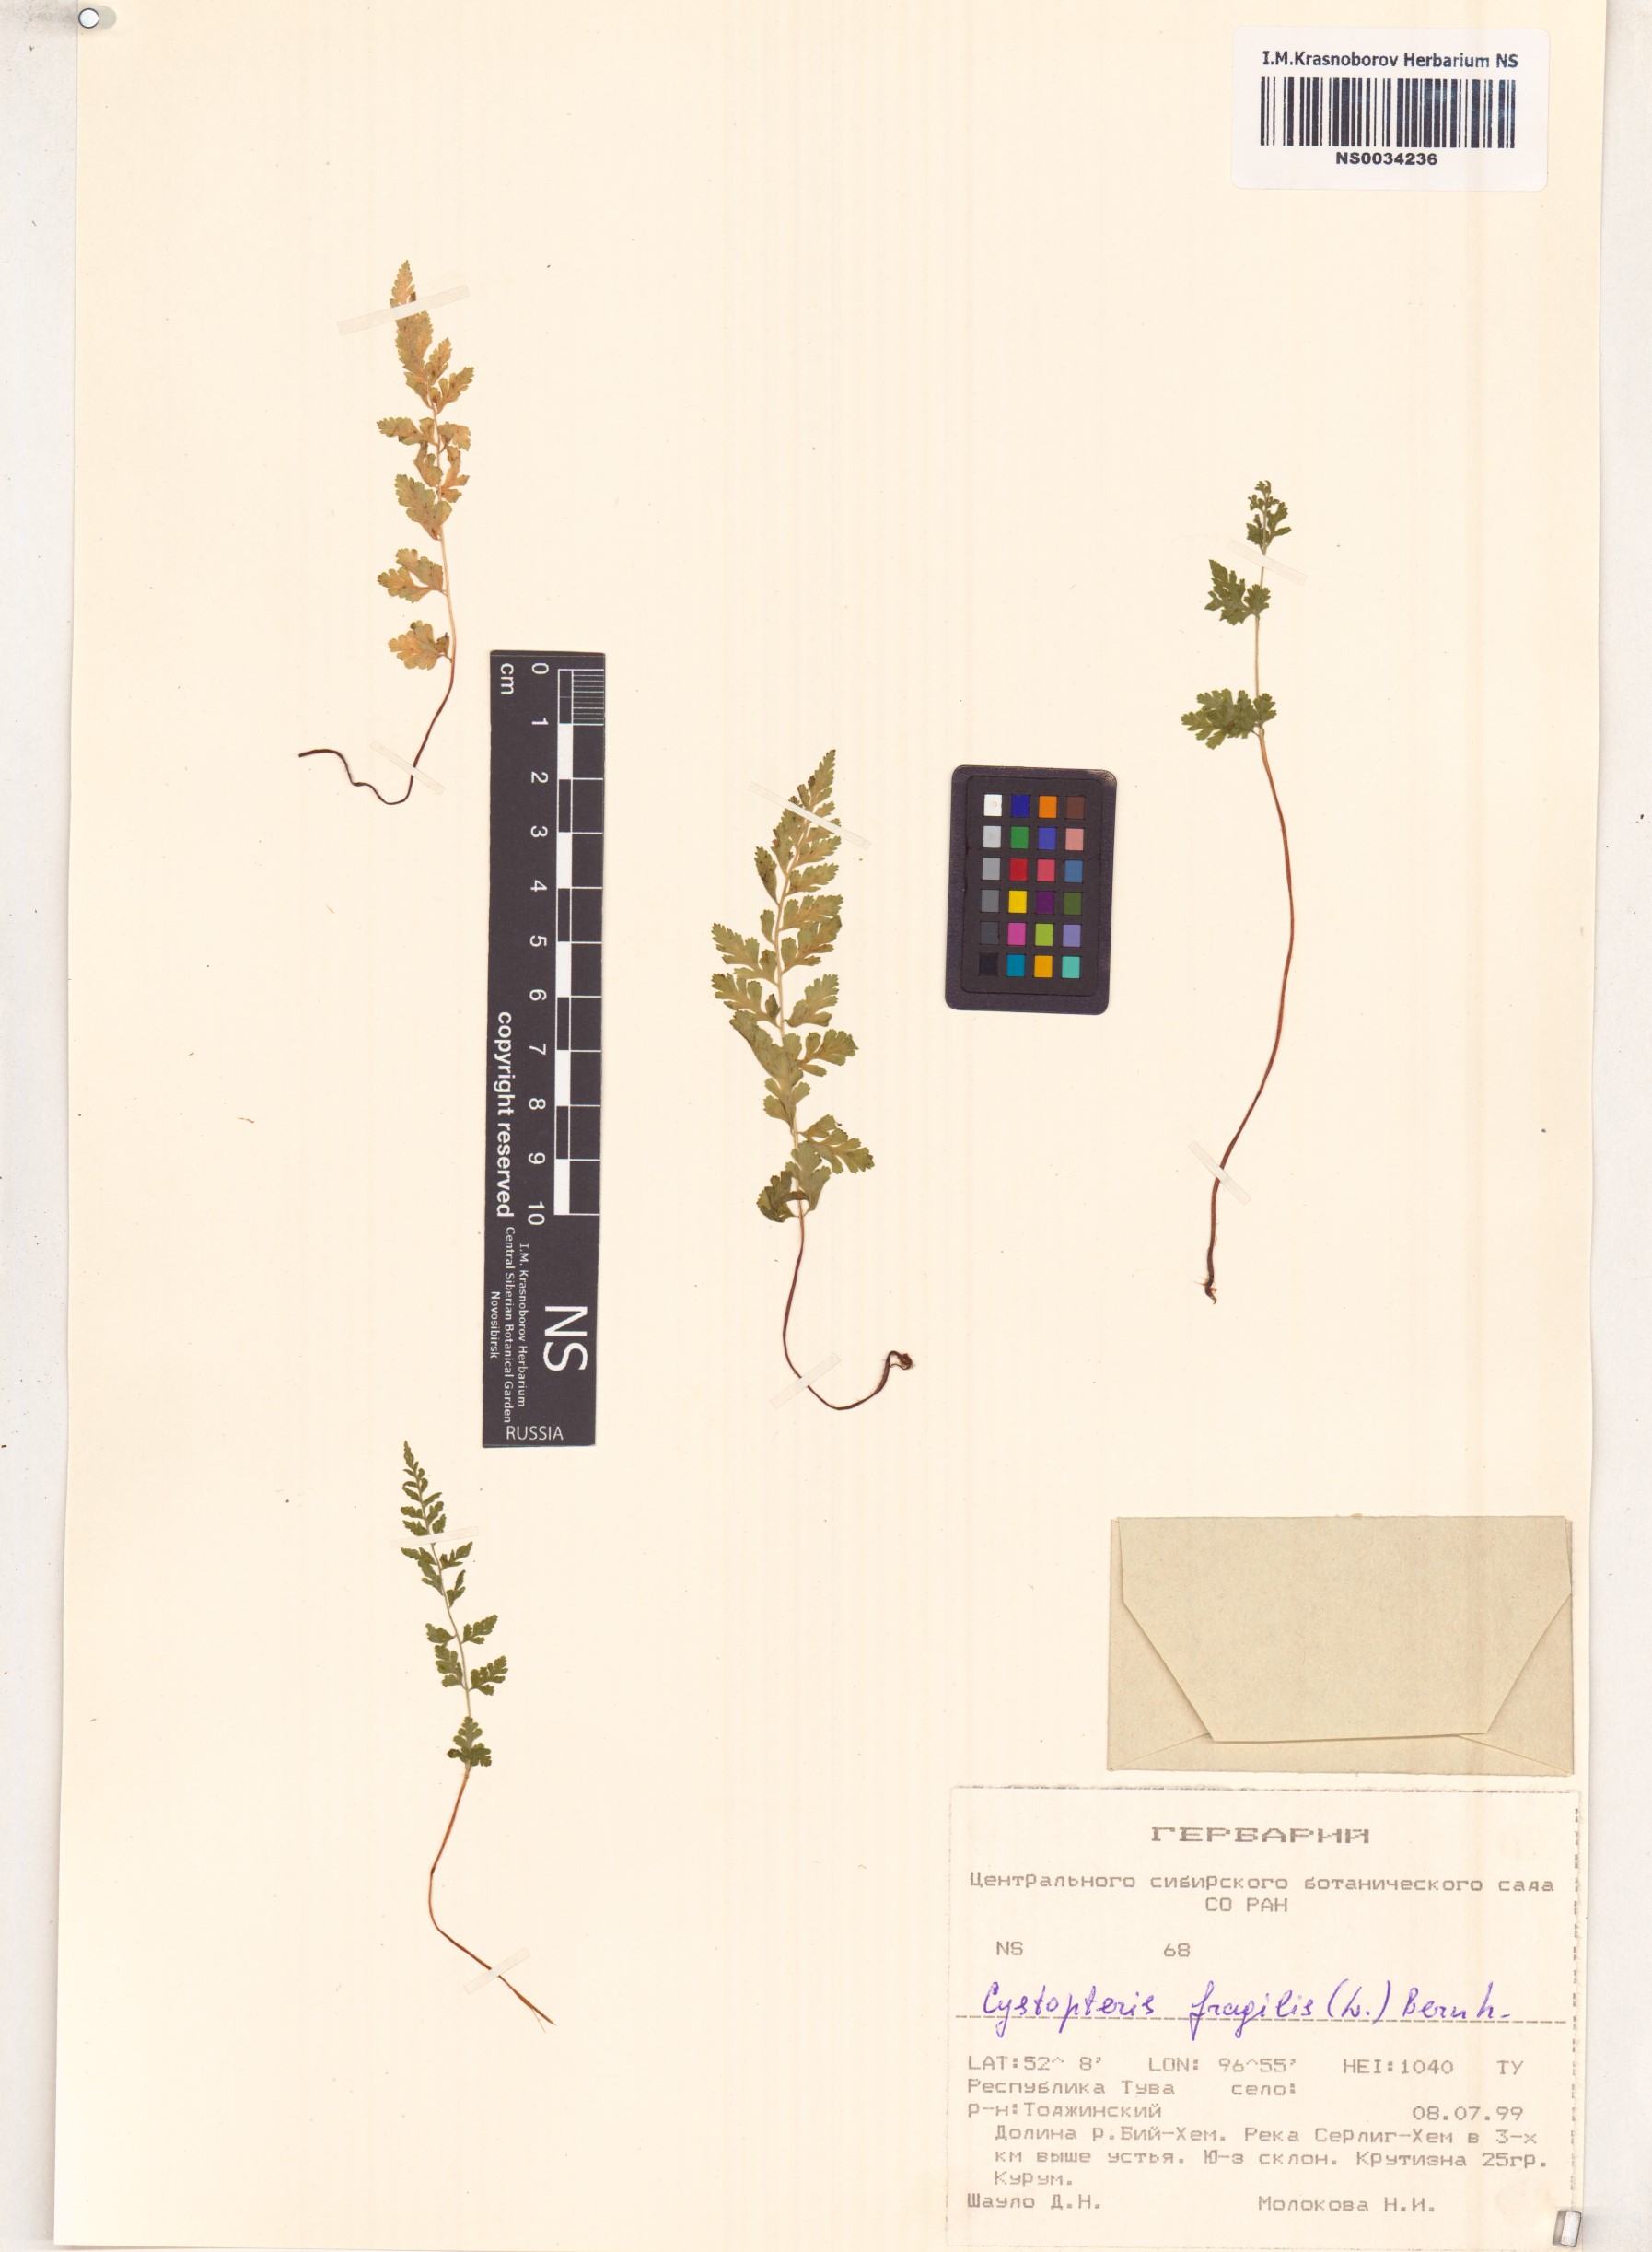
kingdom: Plantae
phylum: Tracheophyta
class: Polypodiopsida
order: Polypodiales
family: Cystopteridaceae
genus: Cystopteris
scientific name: Cystopteris fragilis
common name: Brittle bladder fern
